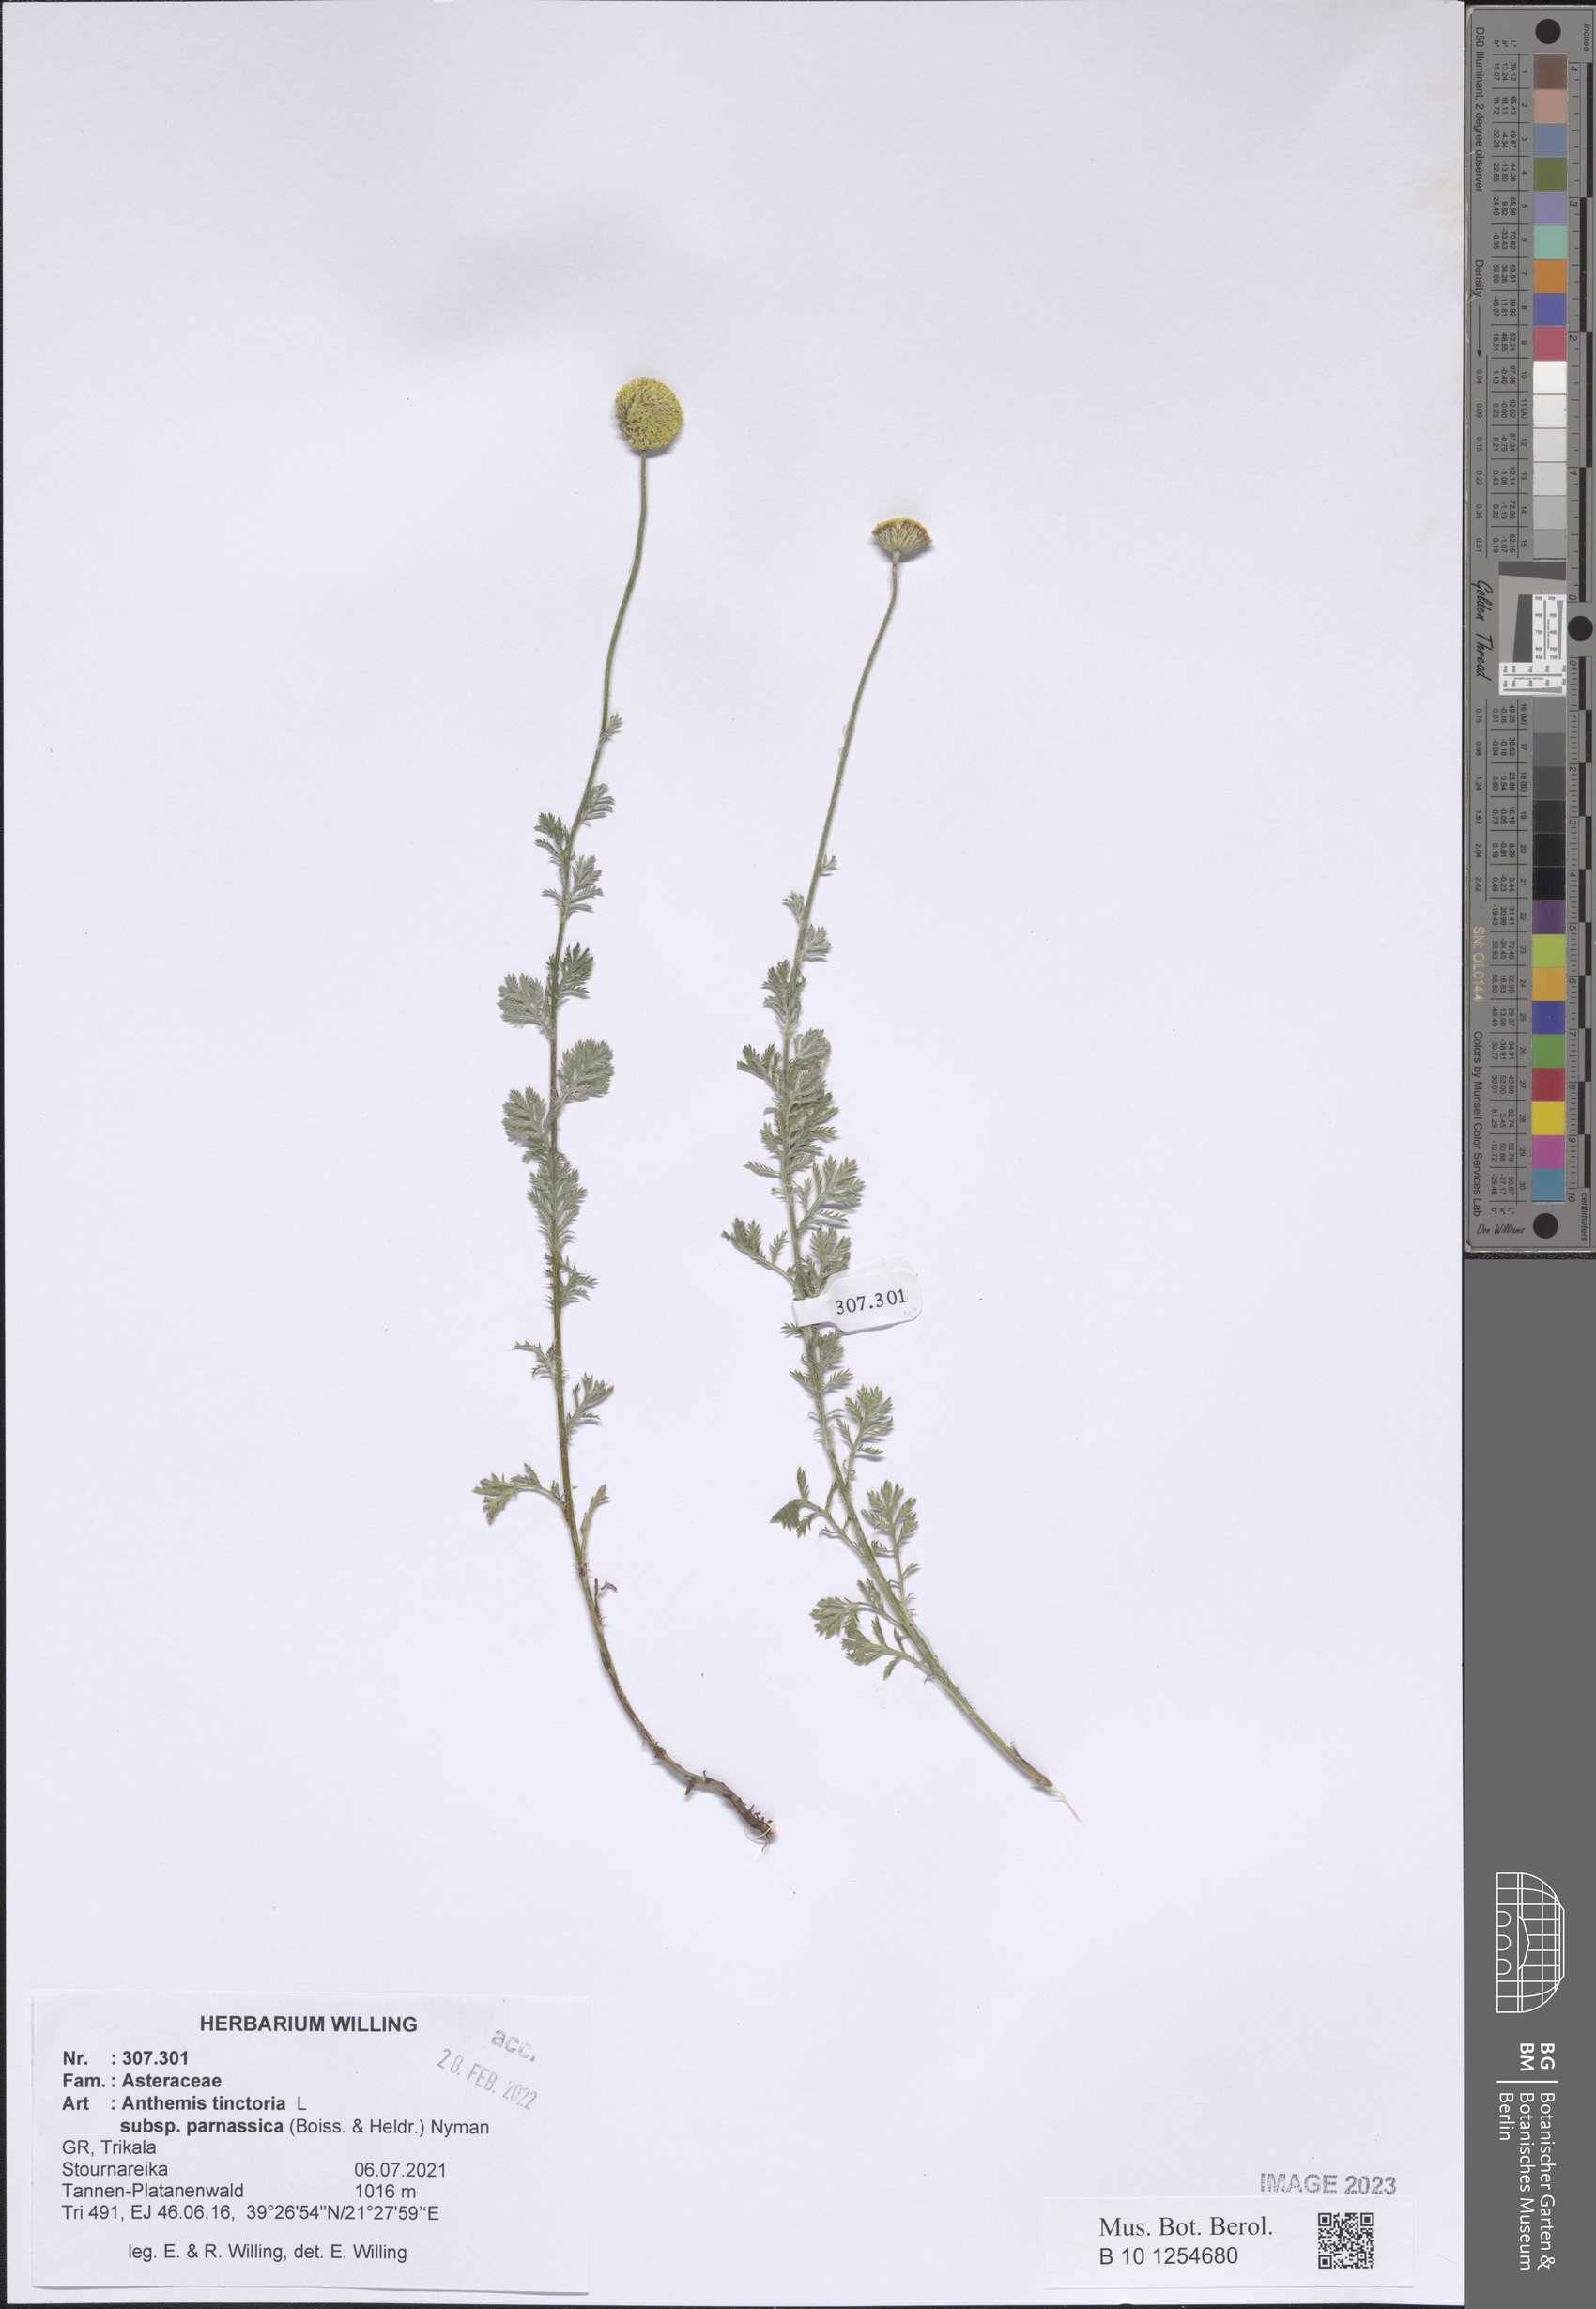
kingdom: Plantae
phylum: Tracheophyta
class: Magnoliopsida
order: Asterales
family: Asteraceae
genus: Cota
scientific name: Cota tinctoria
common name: Golden chamomile
